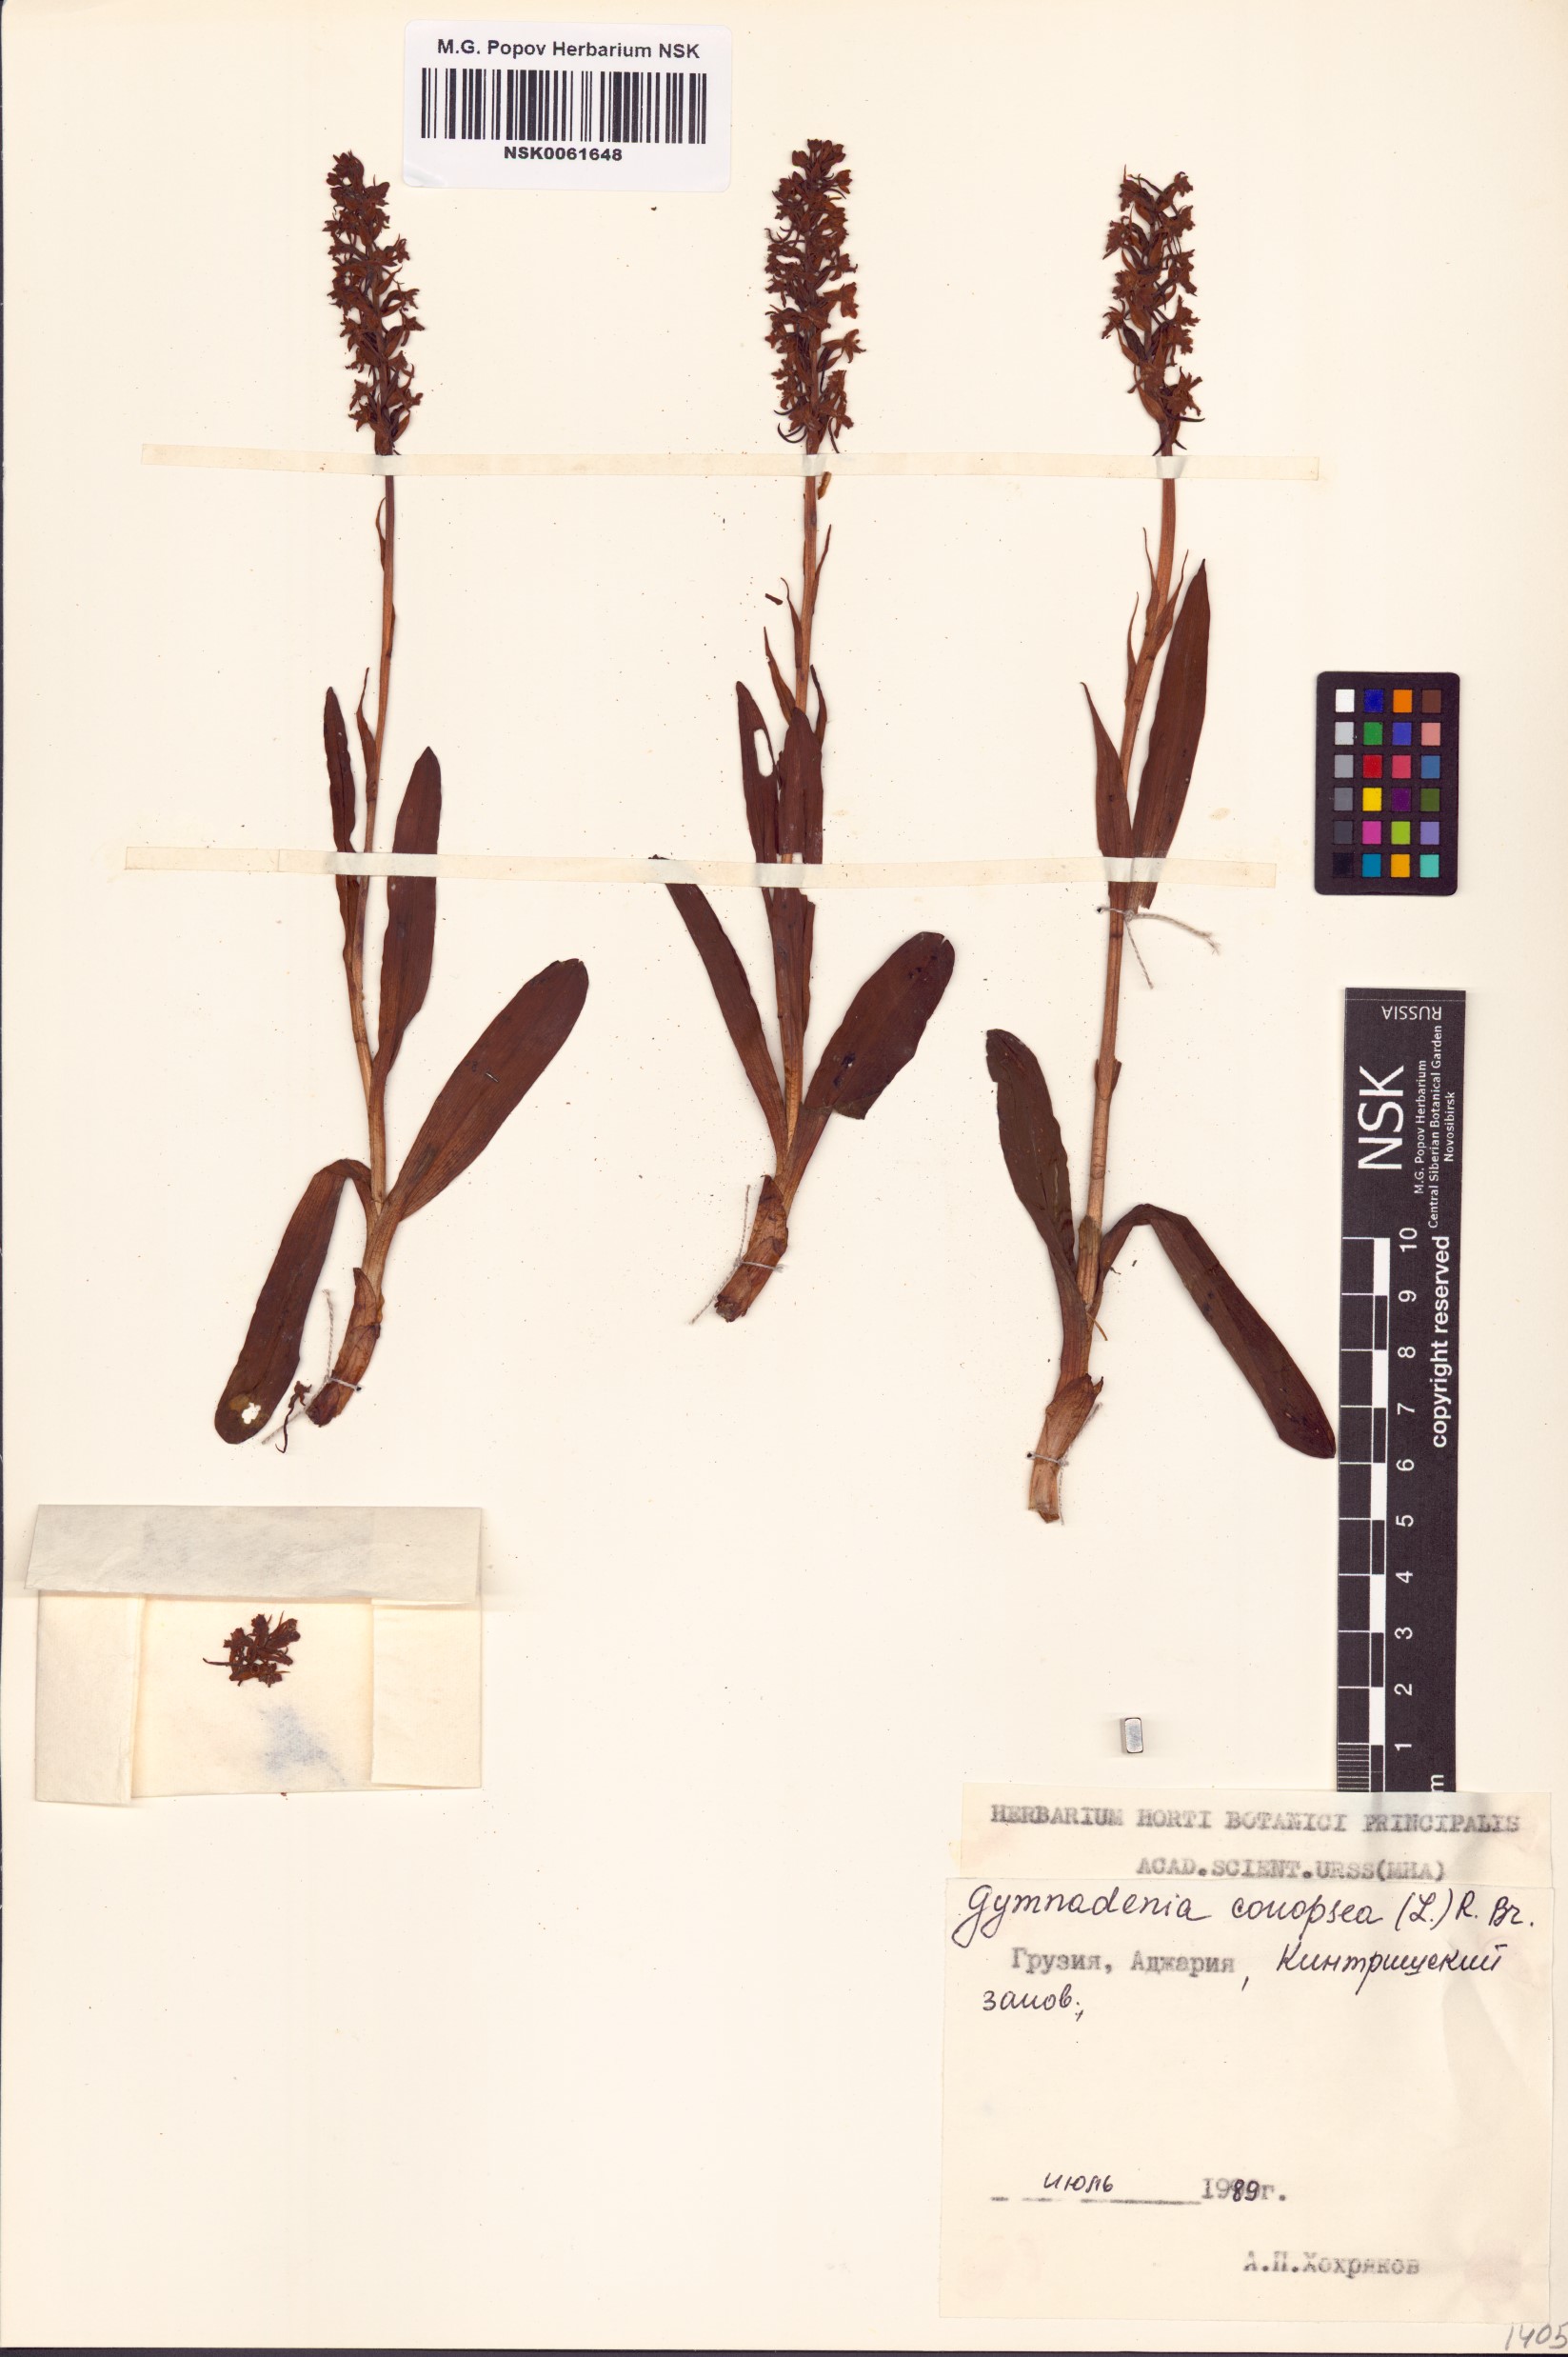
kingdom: Plantae
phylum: Tracheophyta
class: Liliopsida
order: Asparagales
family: Orchidaceae
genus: Gymnadenia
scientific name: Gymnadenia conopsea
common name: Fragrant orchid
